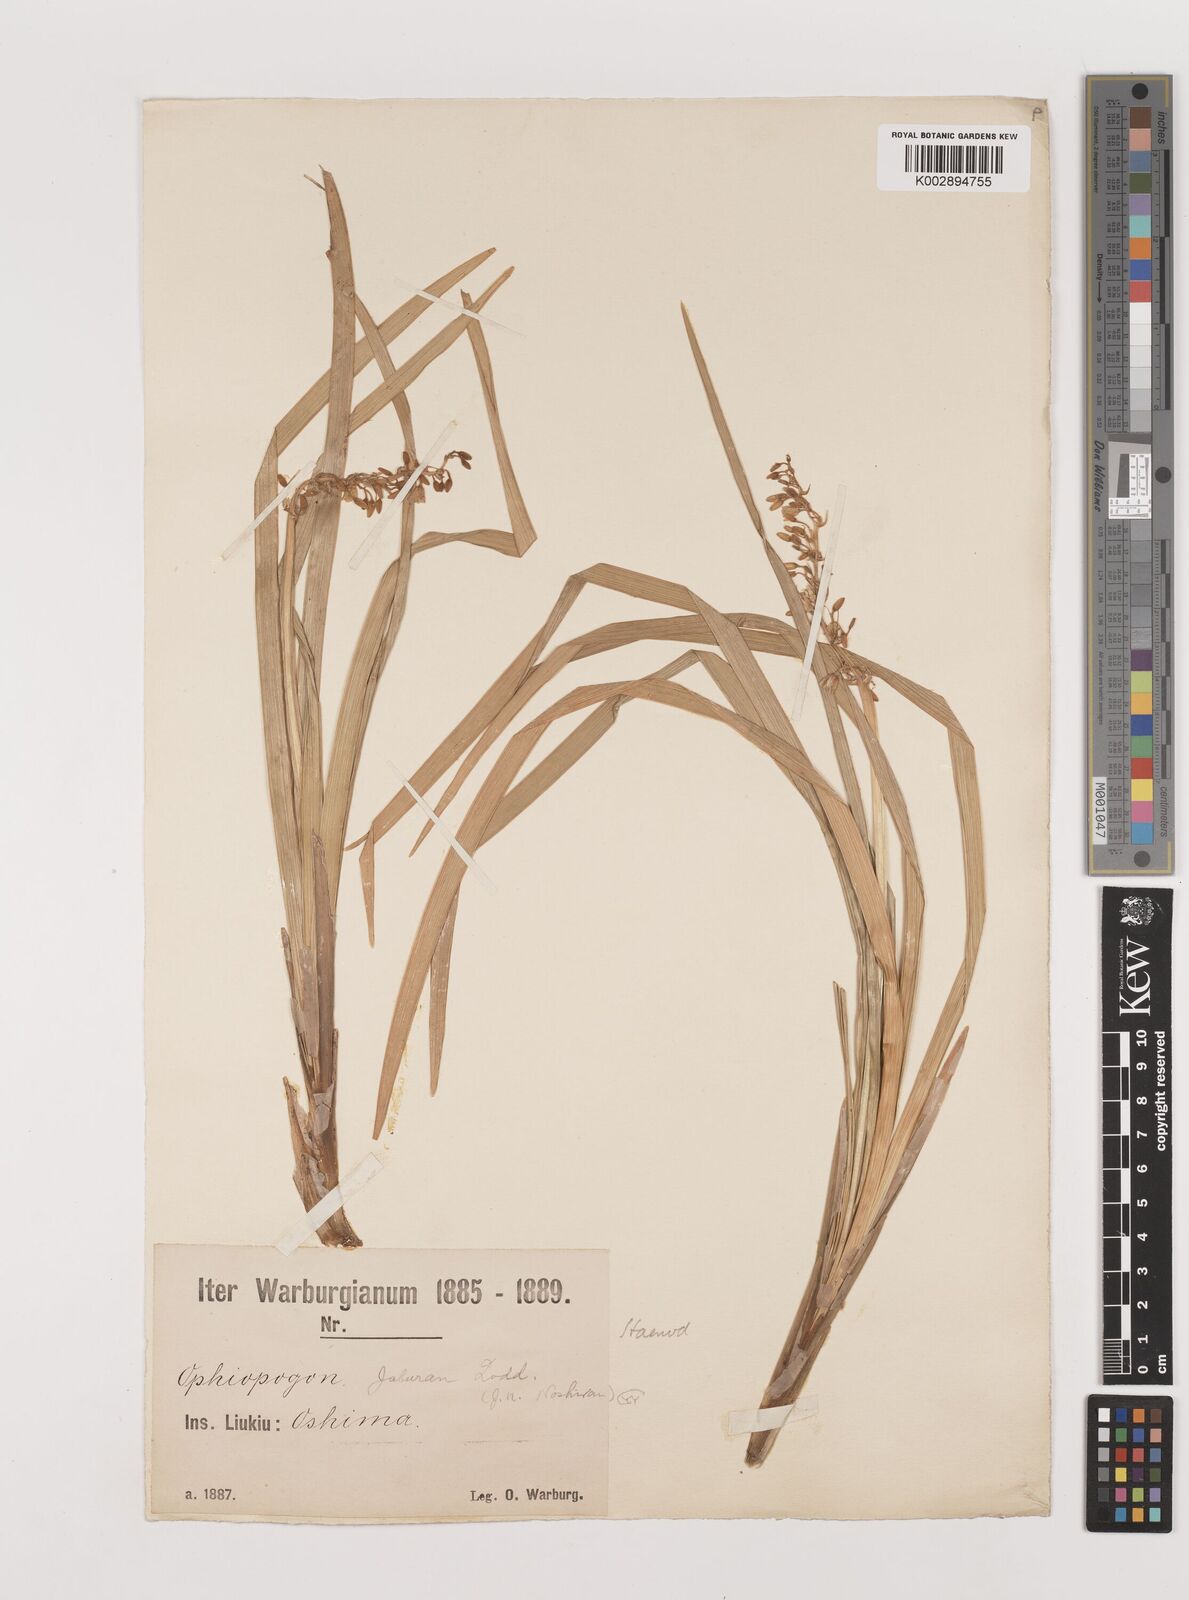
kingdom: Plantae
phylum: Tracheophyta
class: Liliopsida
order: Asparagales
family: Asparagaceae
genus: Ophiopogon
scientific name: Ophiopogon jaburan
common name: Lilyturf
